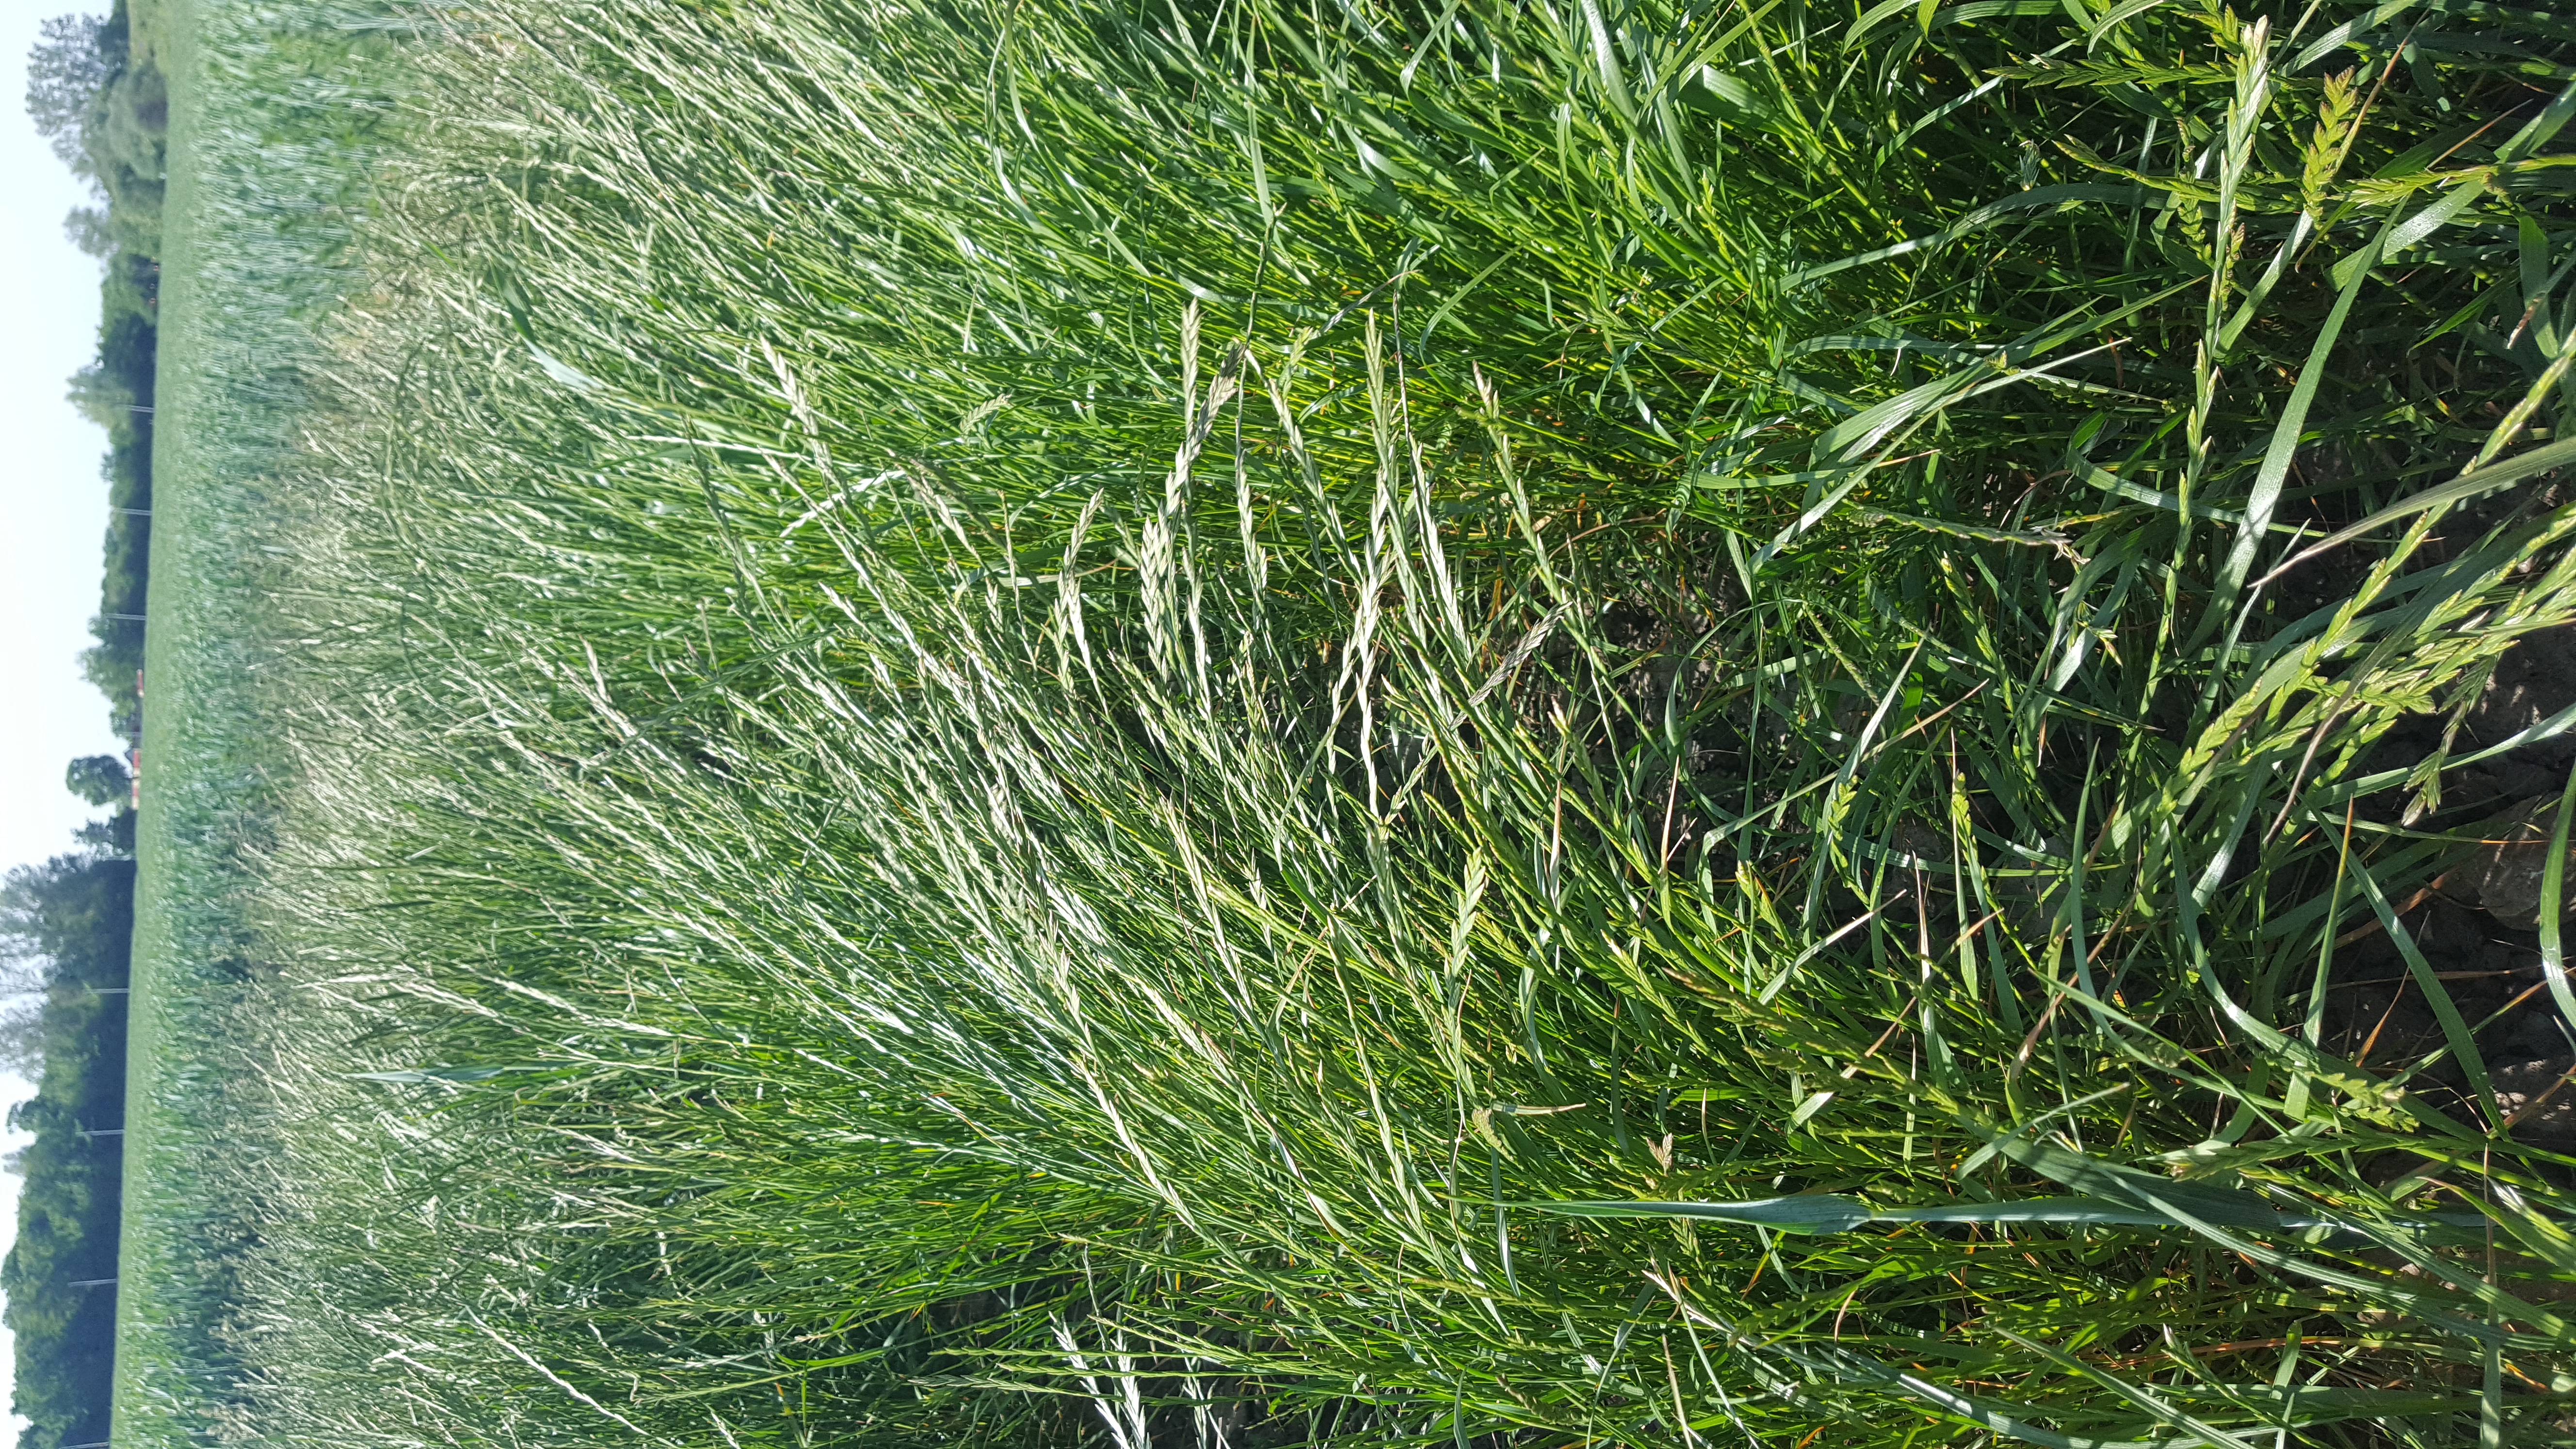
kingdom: Plantae
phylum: Tracheophyta
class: Liliopsida
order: Poales
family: Poaceae
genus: Lolium
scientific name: Lolium perenne
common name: Perennial ryegrass
